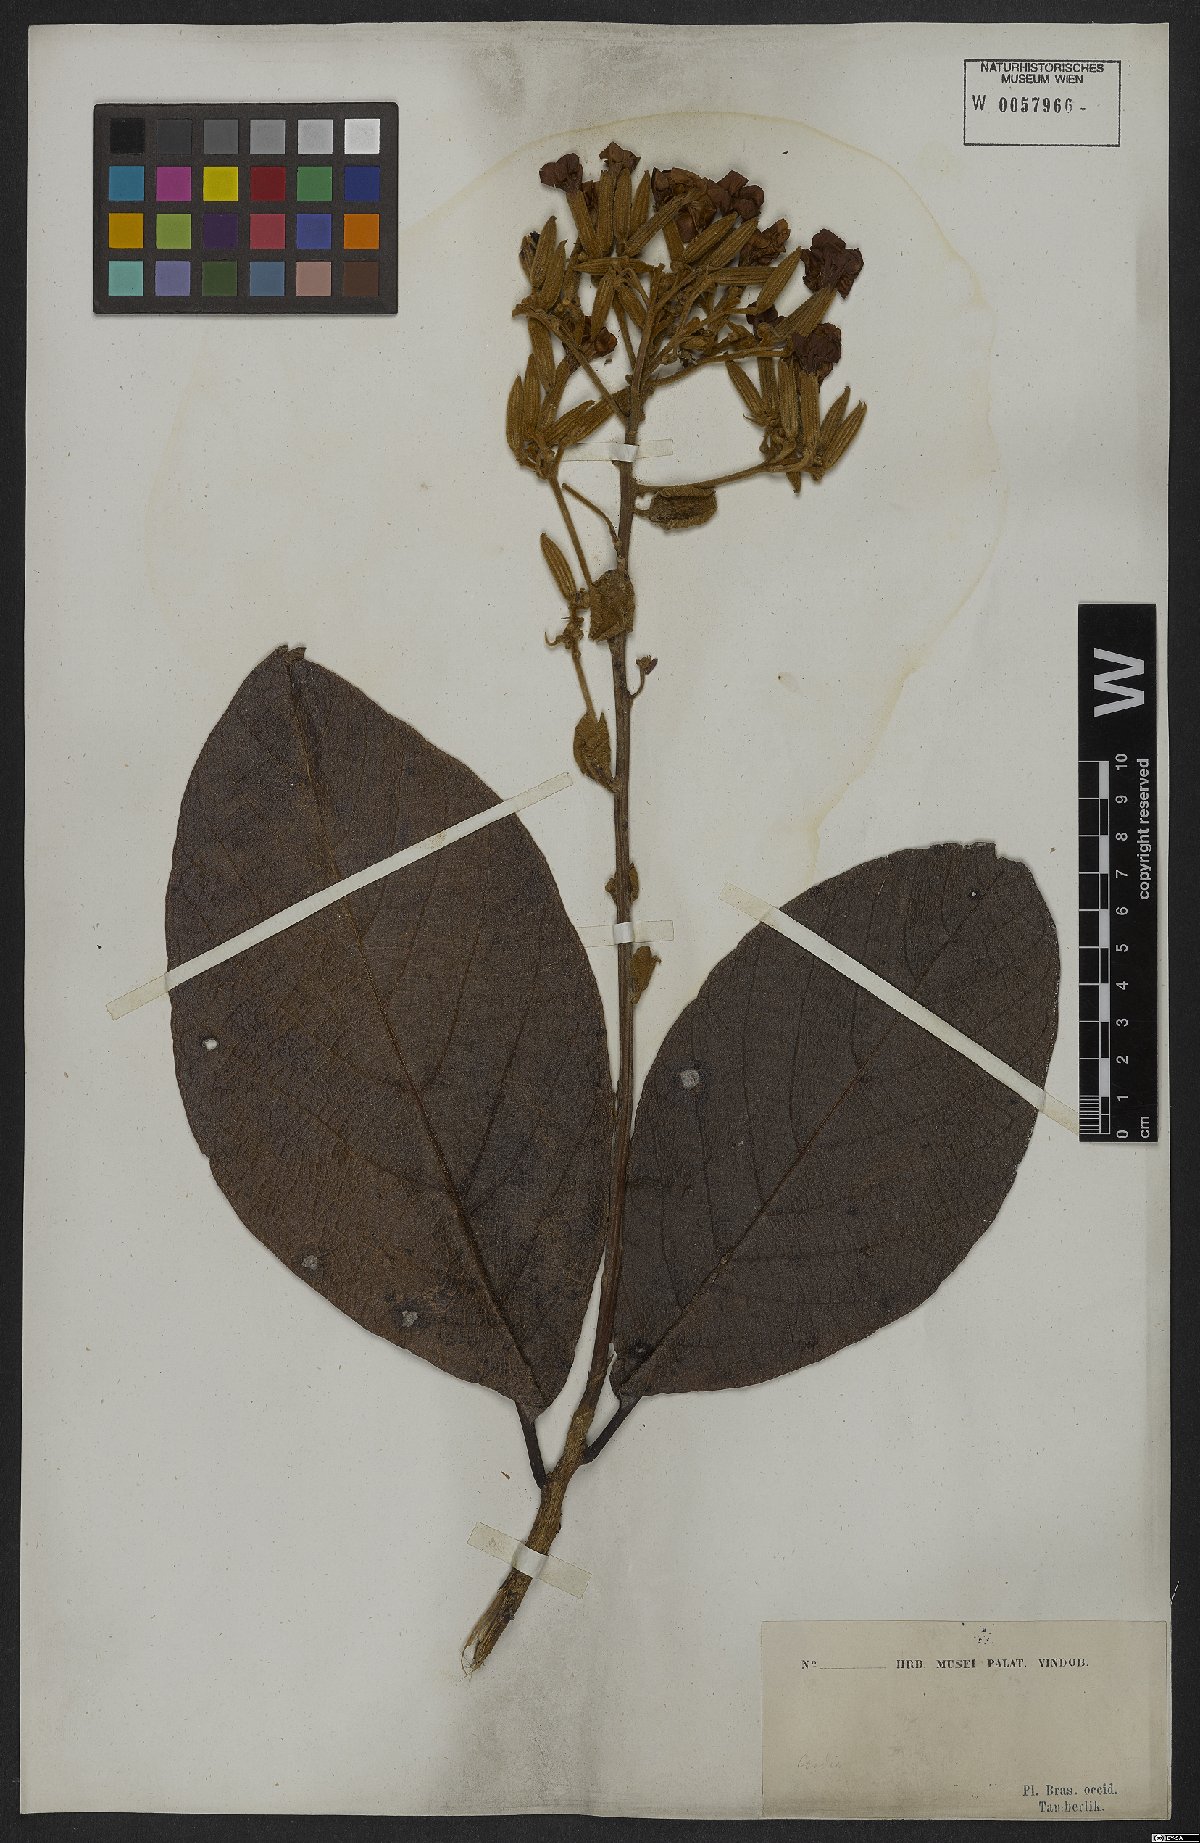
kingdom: Plantae
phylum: Tracheophyta
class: Magnoliopsida
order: Boraginales
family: Cordiaceae
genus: Cordia
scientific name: Cordia insignis
